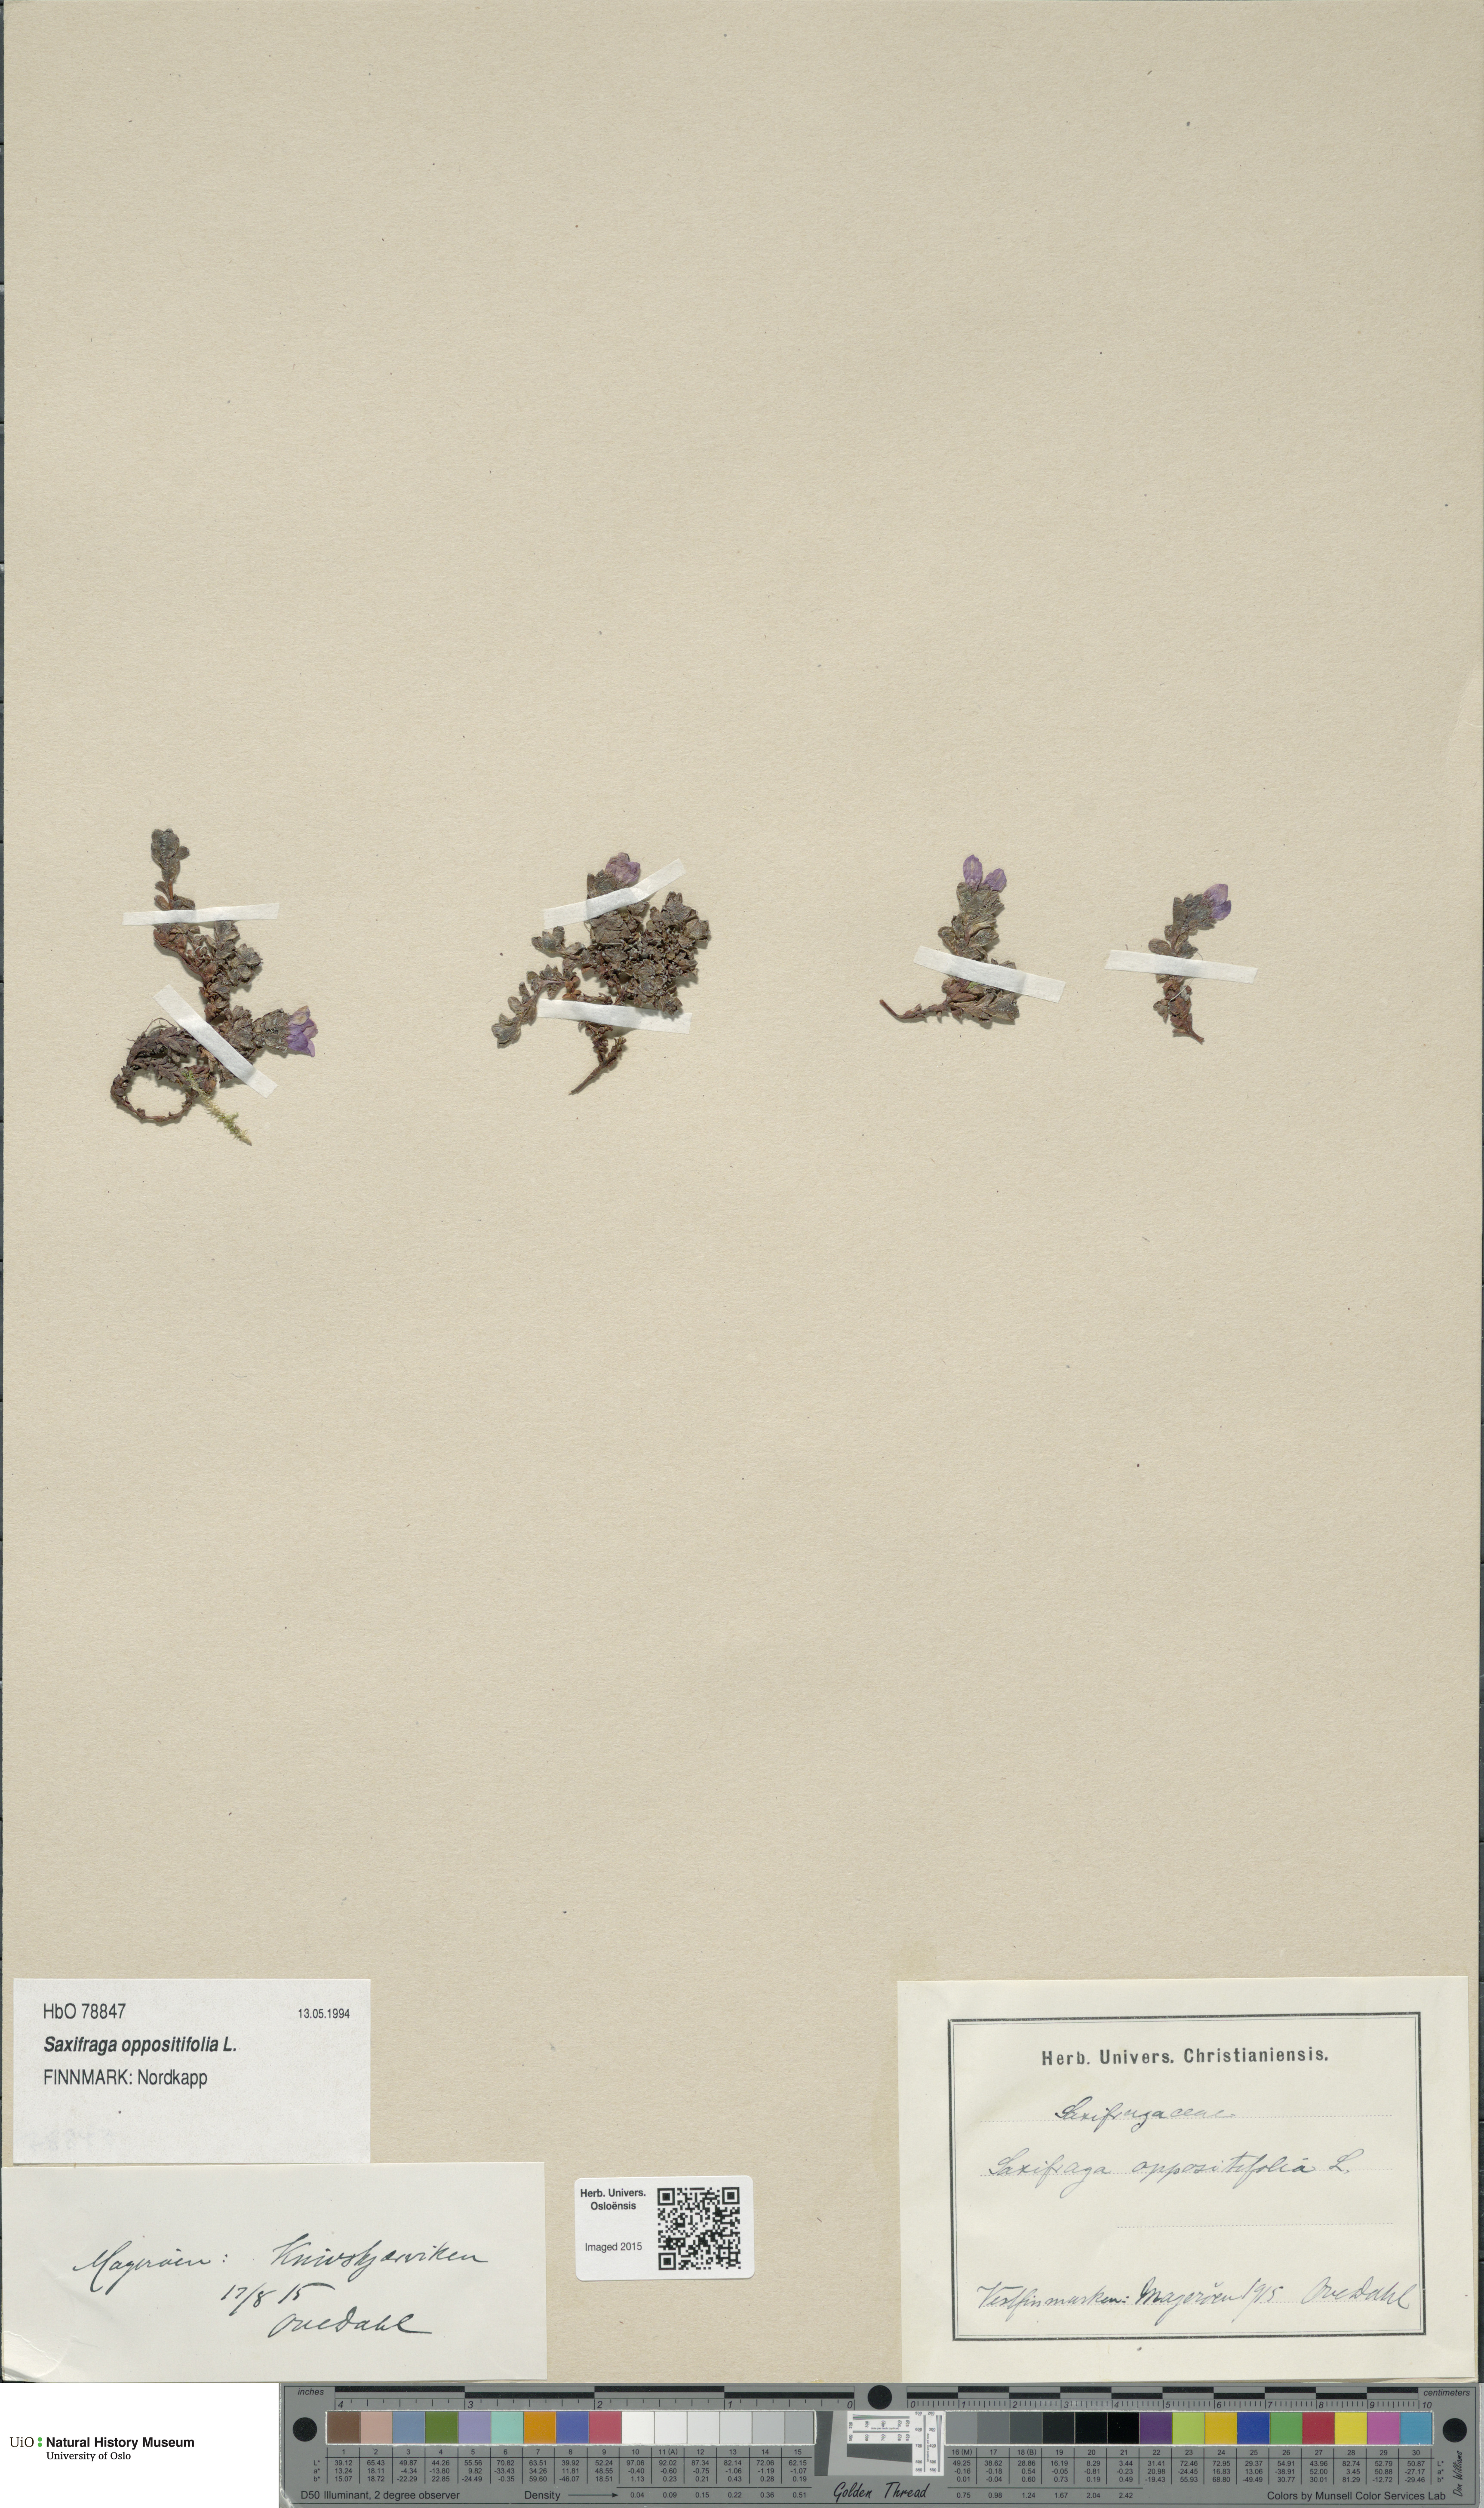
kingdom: Plantae
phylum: Tracheophyta
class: Magnoliopsida
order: Saxifragales
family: Saxifragaceae
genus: Saxifraga
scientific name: Saxifraga oppositifolia
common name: Purple saxifrage
